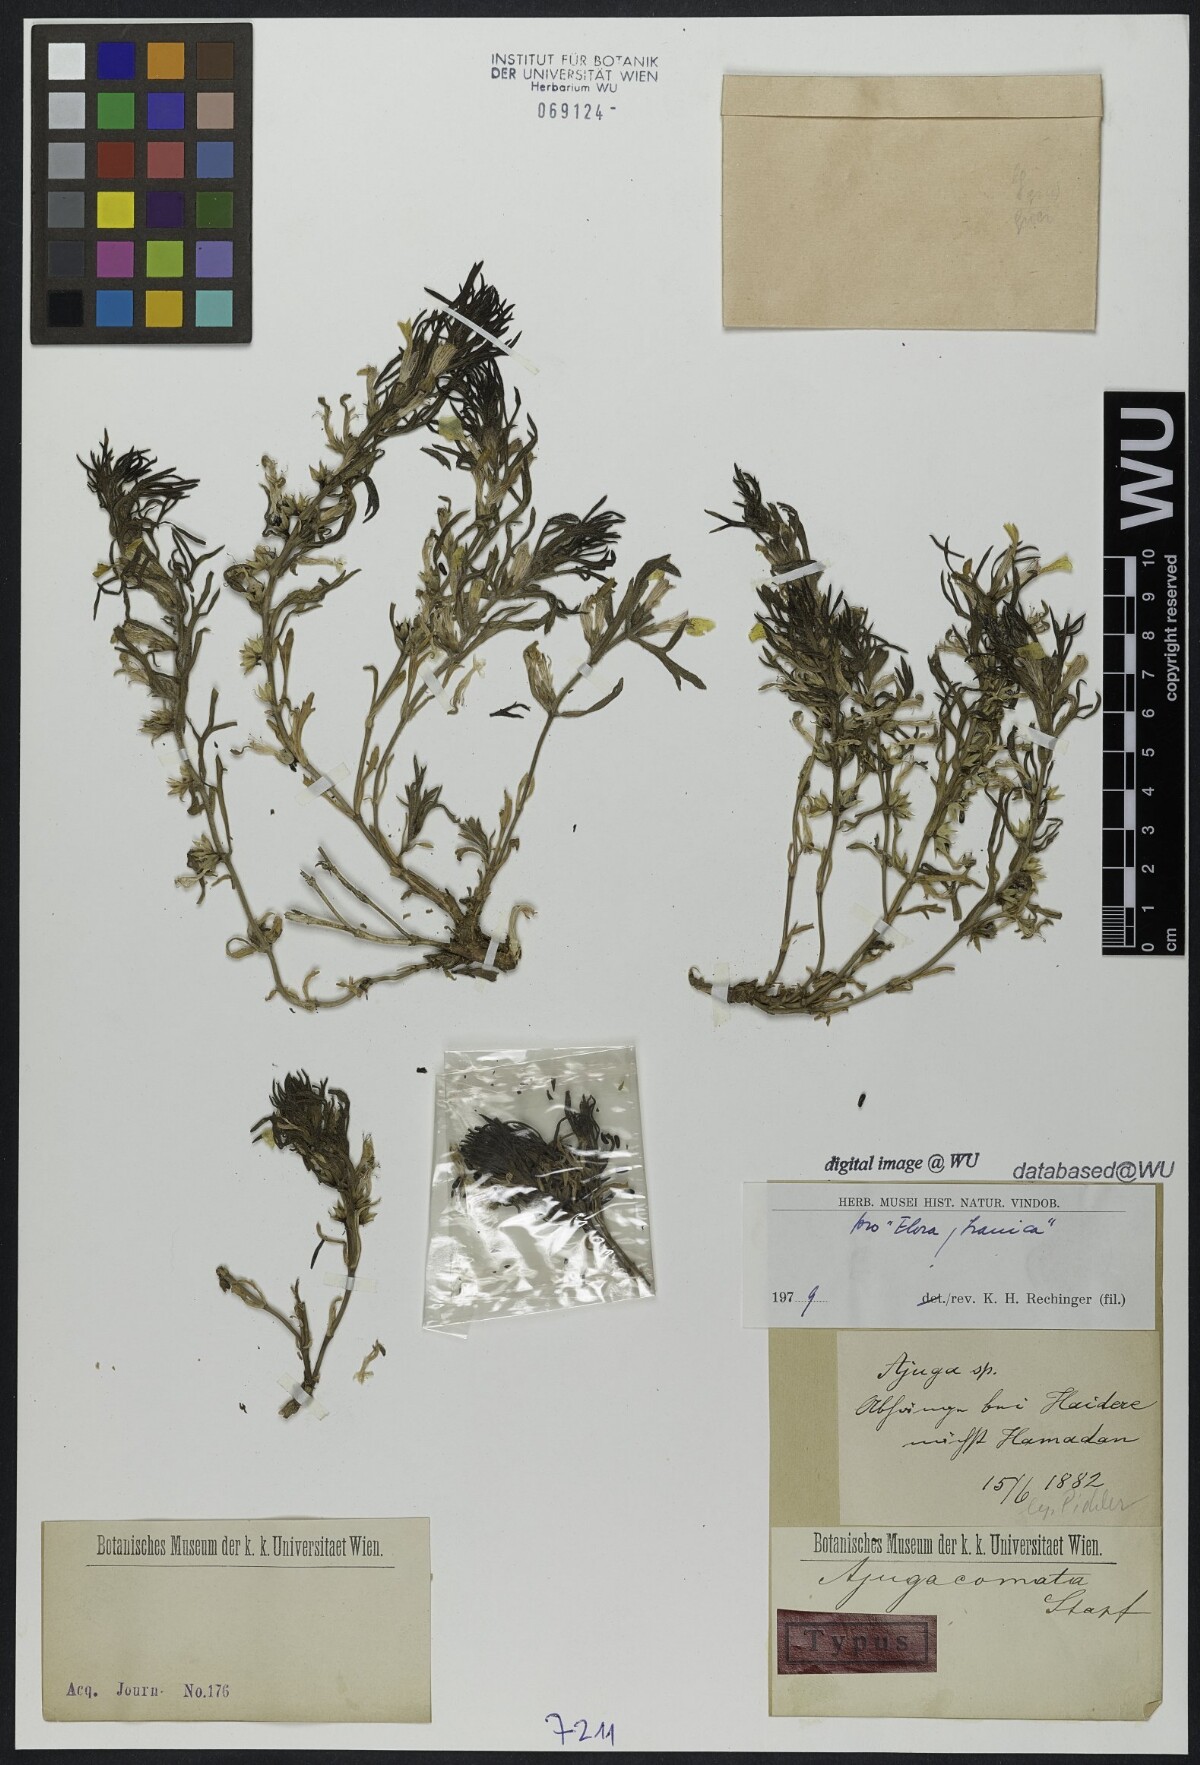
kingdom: Plantae
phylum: Tracheophyta
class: Magnoliopsida
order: Lamiales
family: Lamiaceae
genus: Ajuga
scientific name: Ajuga chamaepitys
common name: Ground-pine
